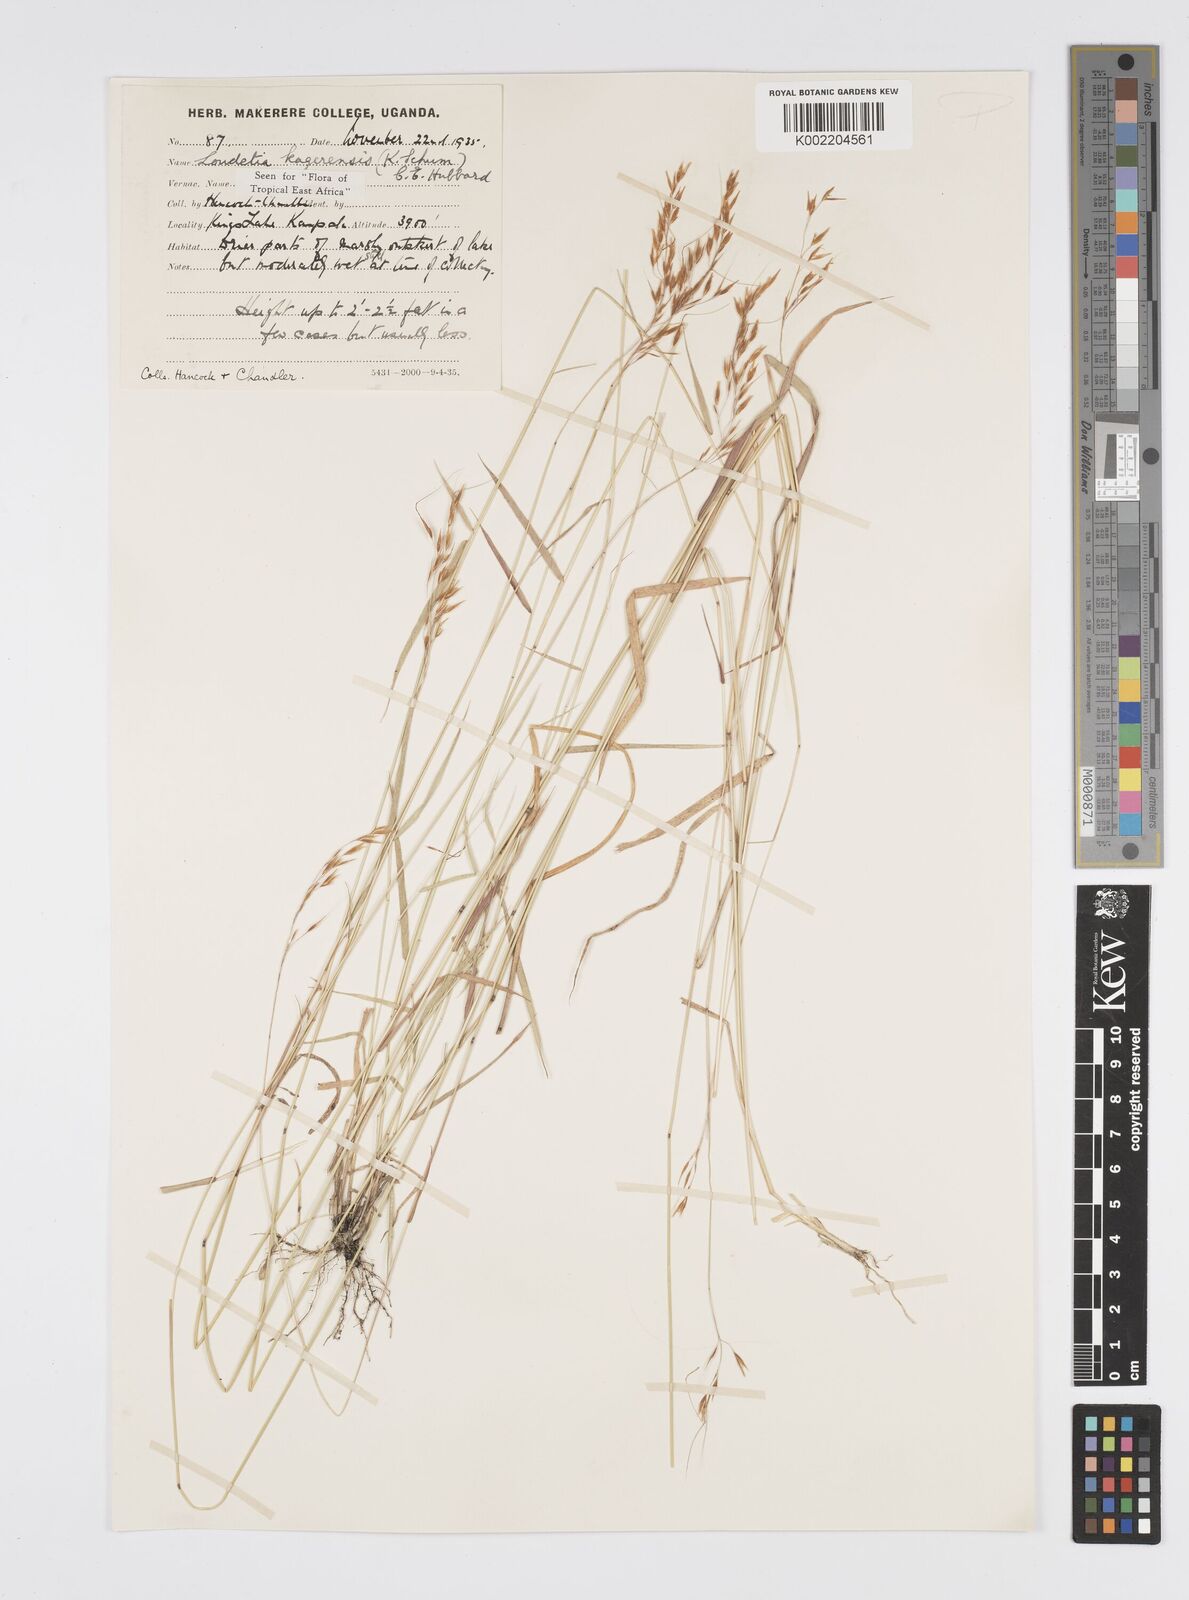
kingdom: Plantae
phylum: Tracheophyta
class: Liliopsida
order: Poales
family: Poaceae
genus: Loudetia
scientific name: Loudetia kagerensis
